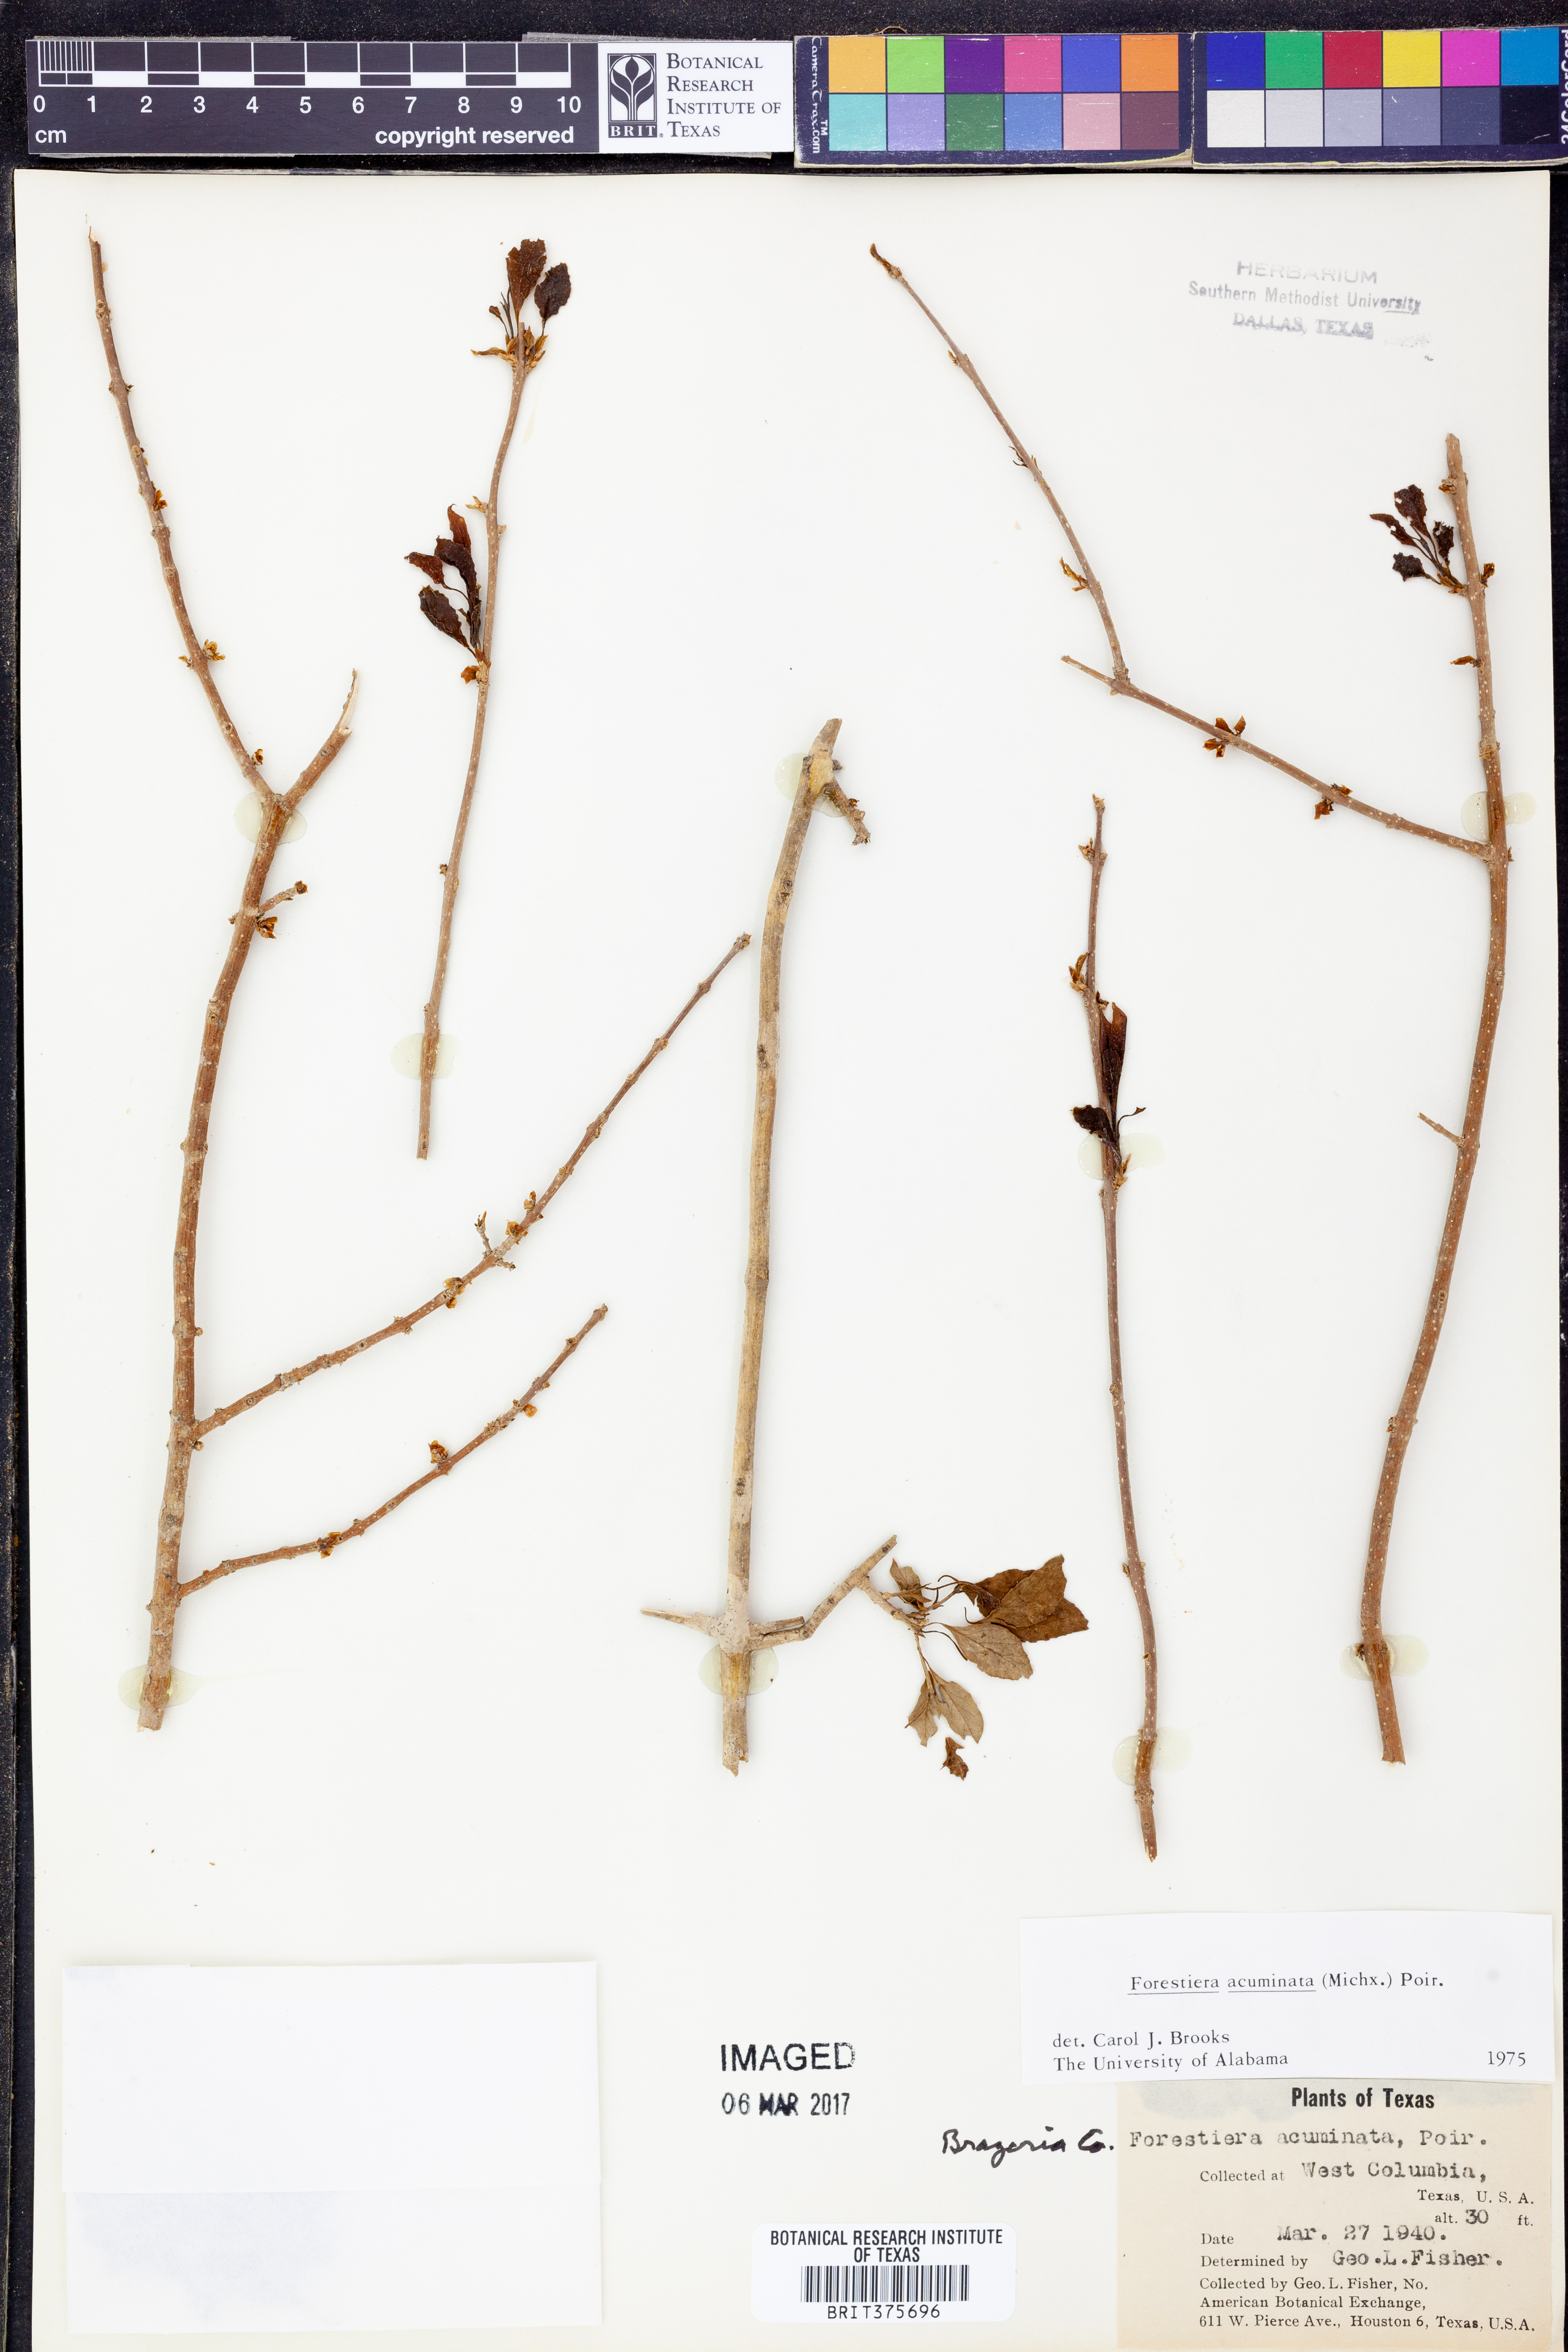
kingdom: Plantae
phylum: Tracheophyta
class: Magnoliopsida
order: Lamiales
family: Oleaceae
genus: Forestiera
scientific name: Forestiera acuminata
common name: Swamp-privet
